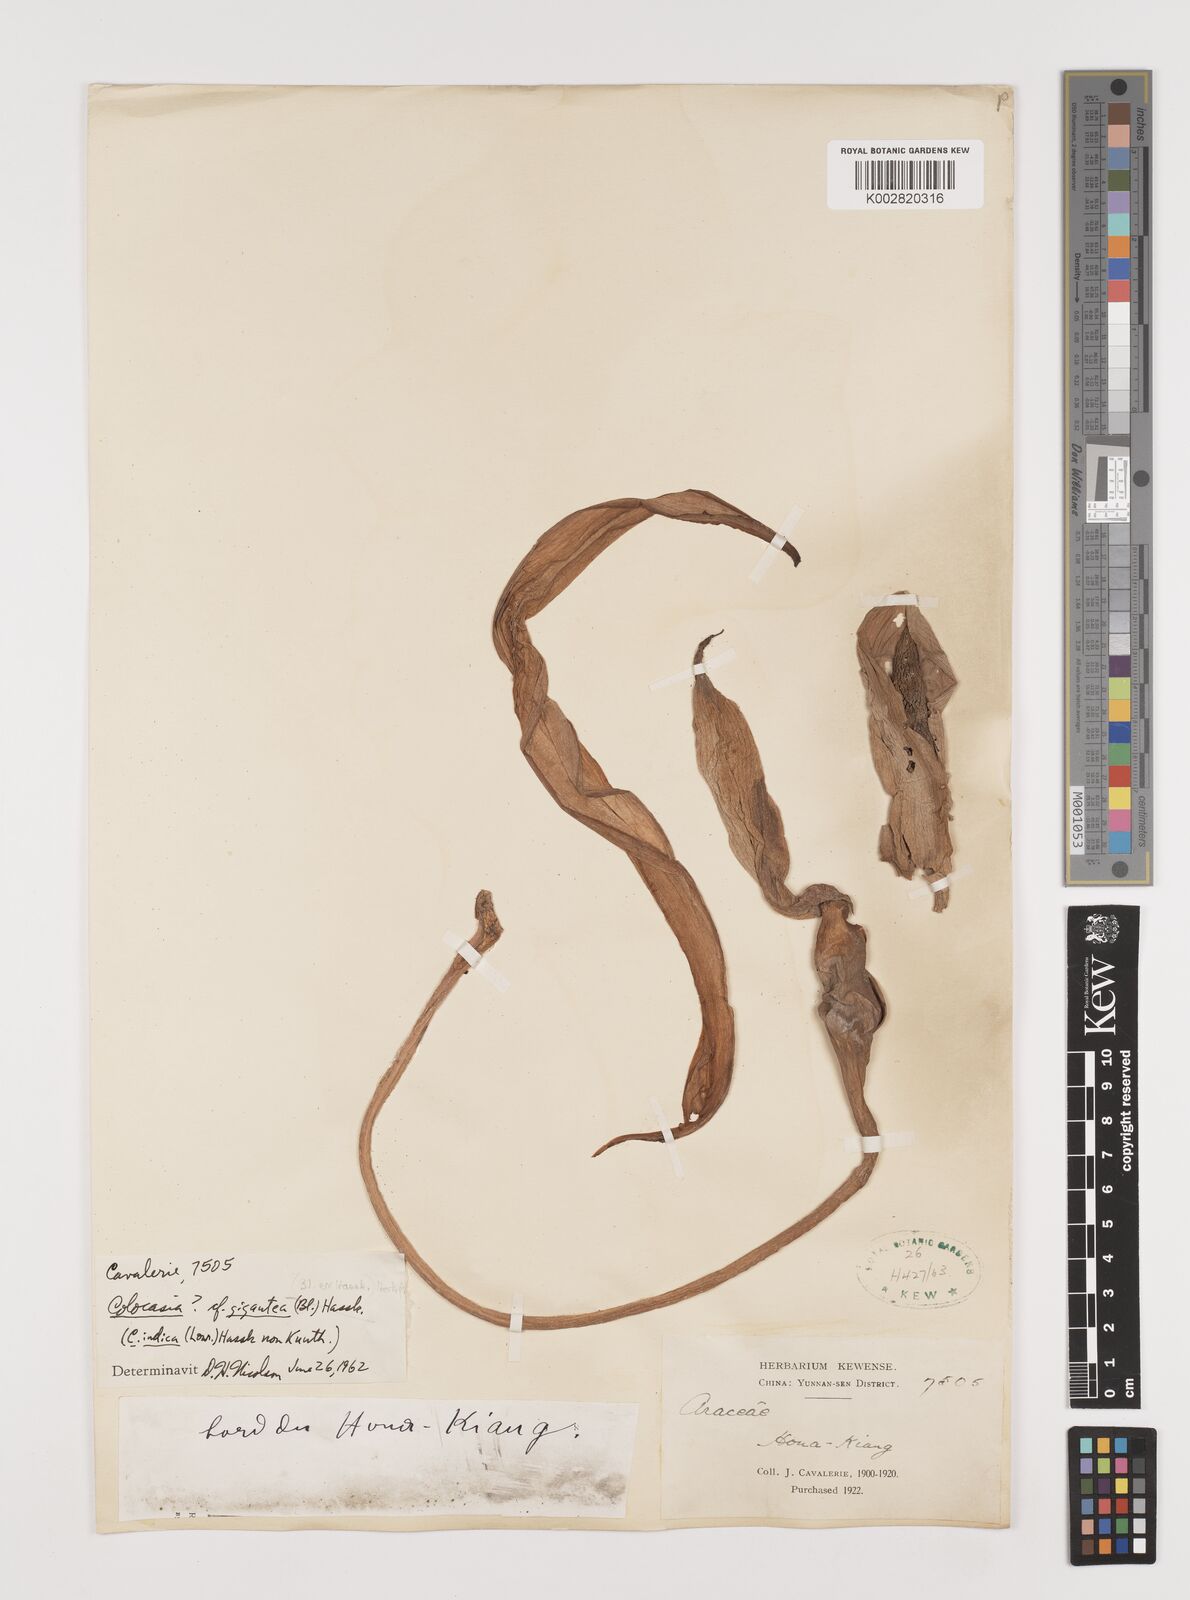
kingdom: Plantae
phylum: Tracheophyta
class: Liliopsida
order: Alismatales
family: Araceae
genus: Leucocasia
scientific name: Leucocasia gigantea
